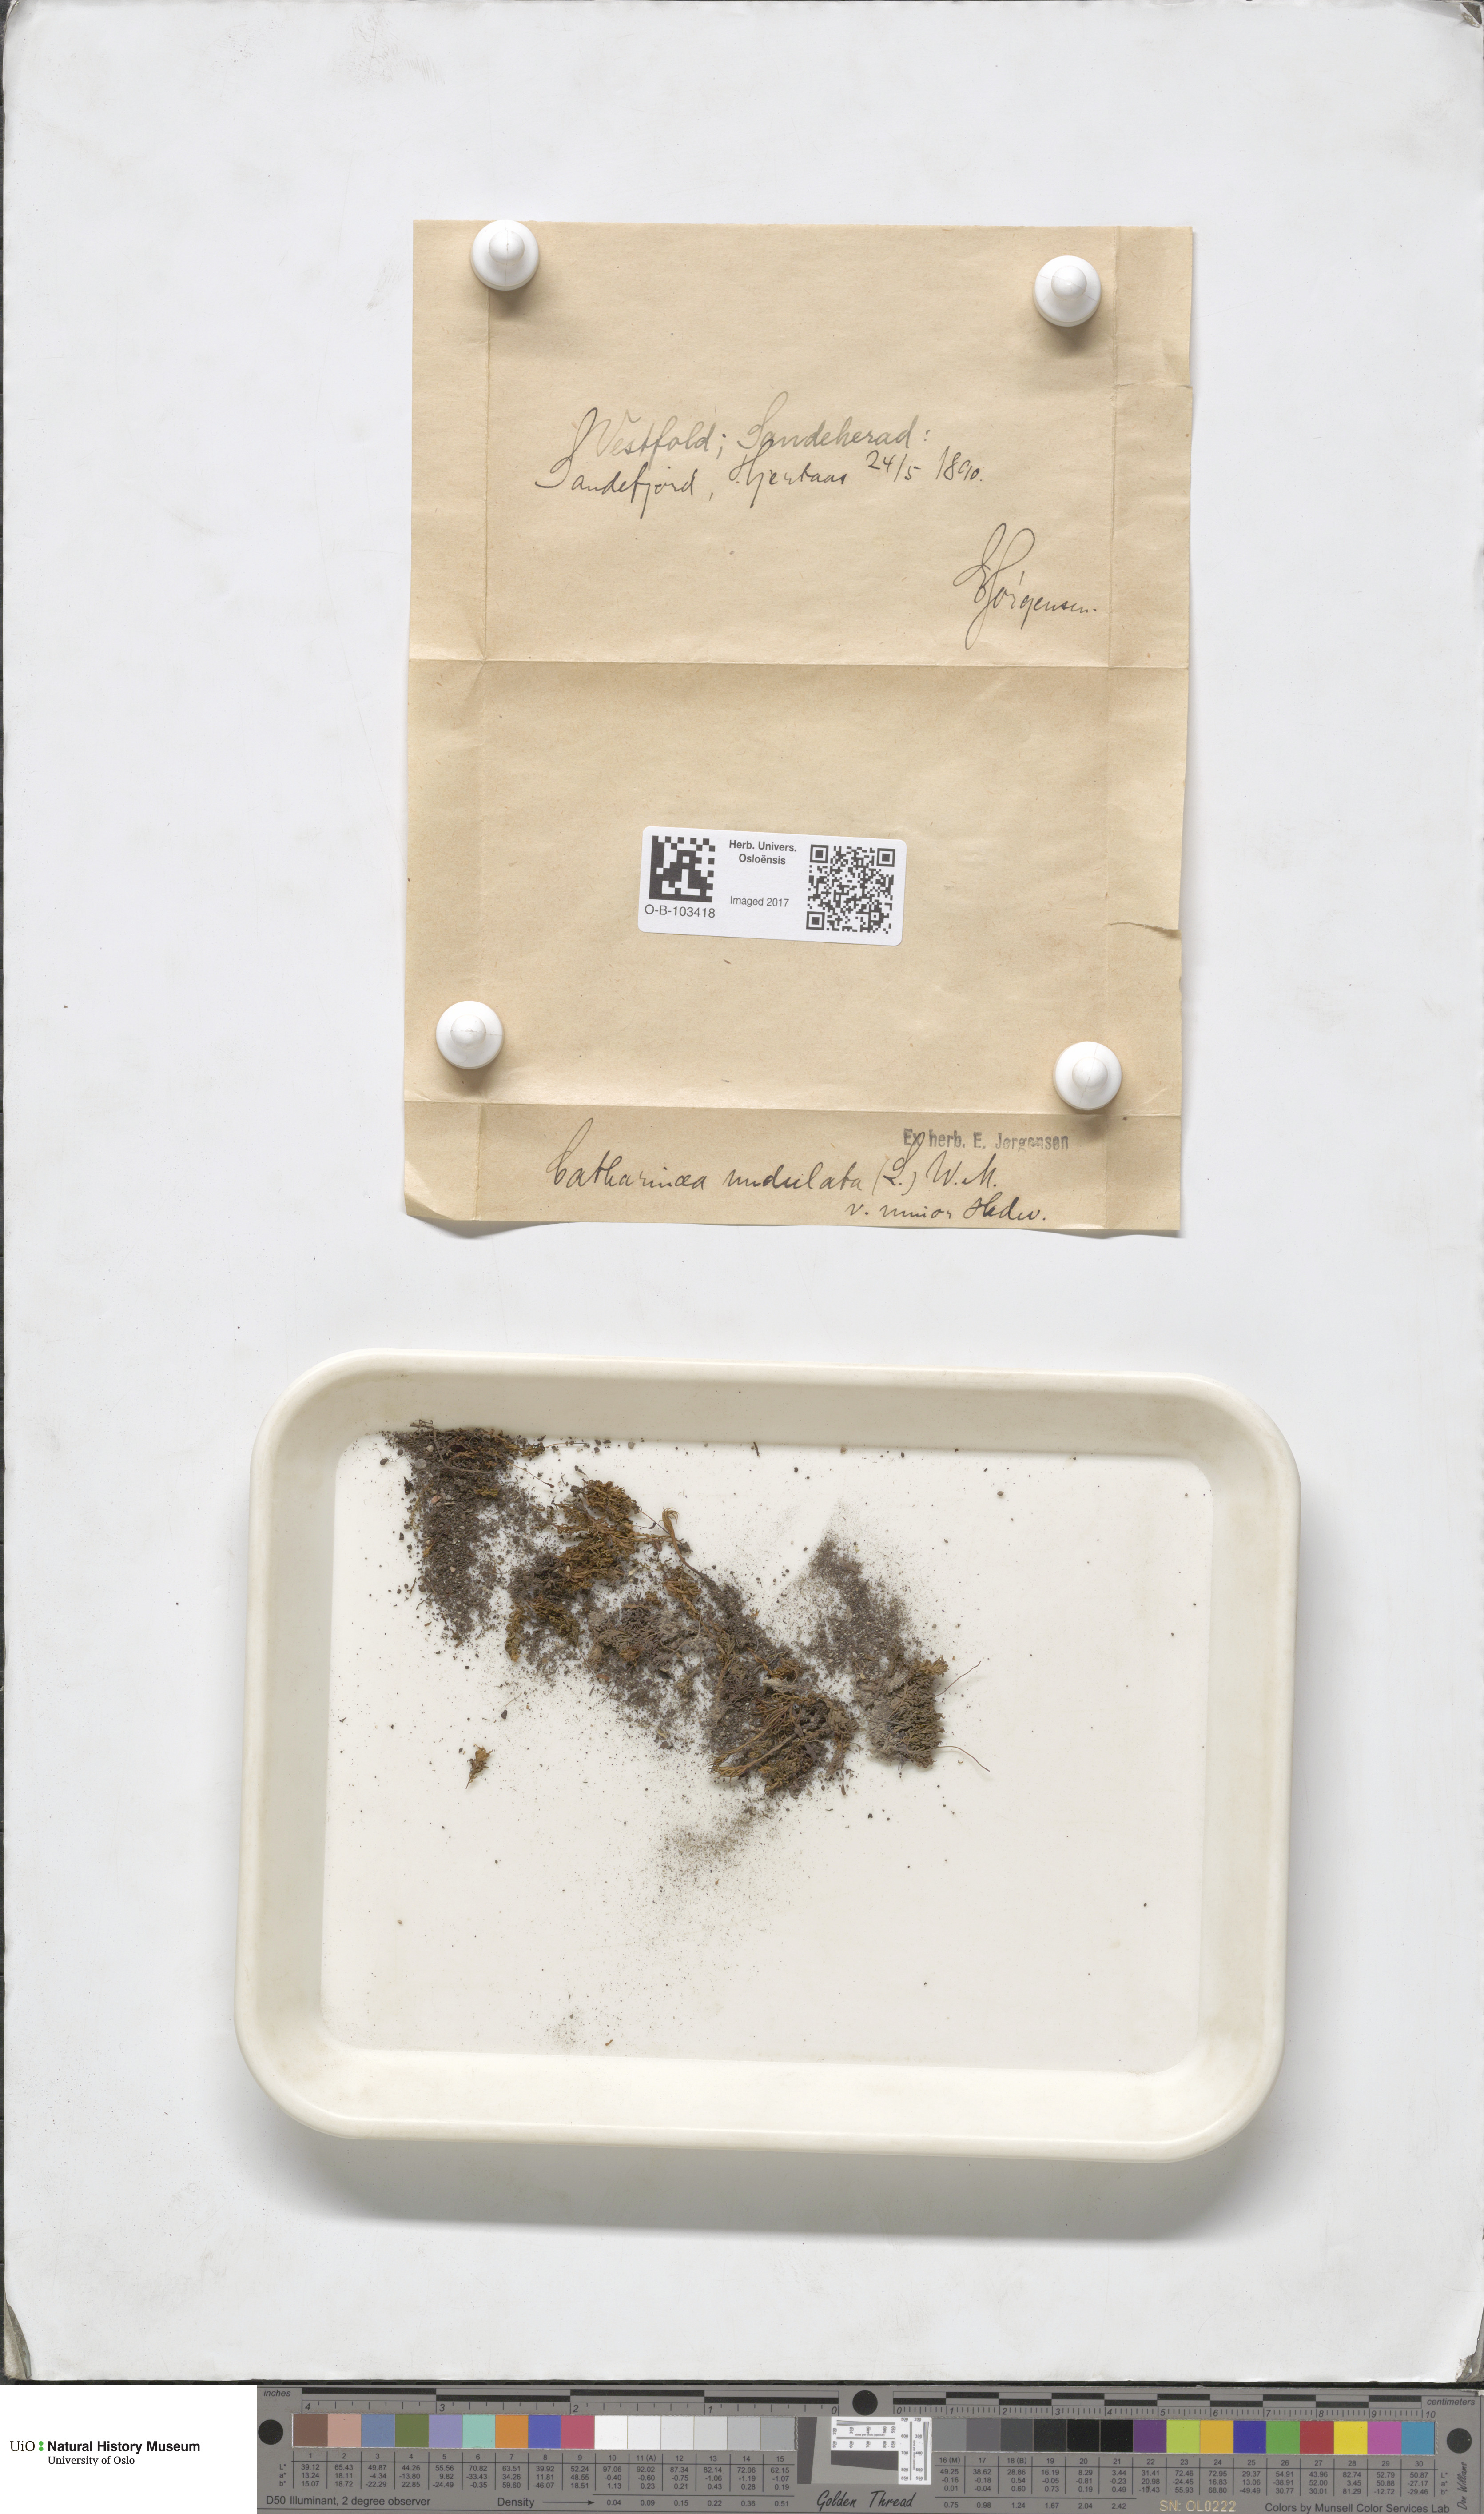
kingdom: Plantae
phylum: Bryophyta
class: Polytrichopsida
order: Polytrichales
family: Polytrichaceae
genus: Atrichum
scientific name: Atrichum undulatum
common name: Common smoothcap
